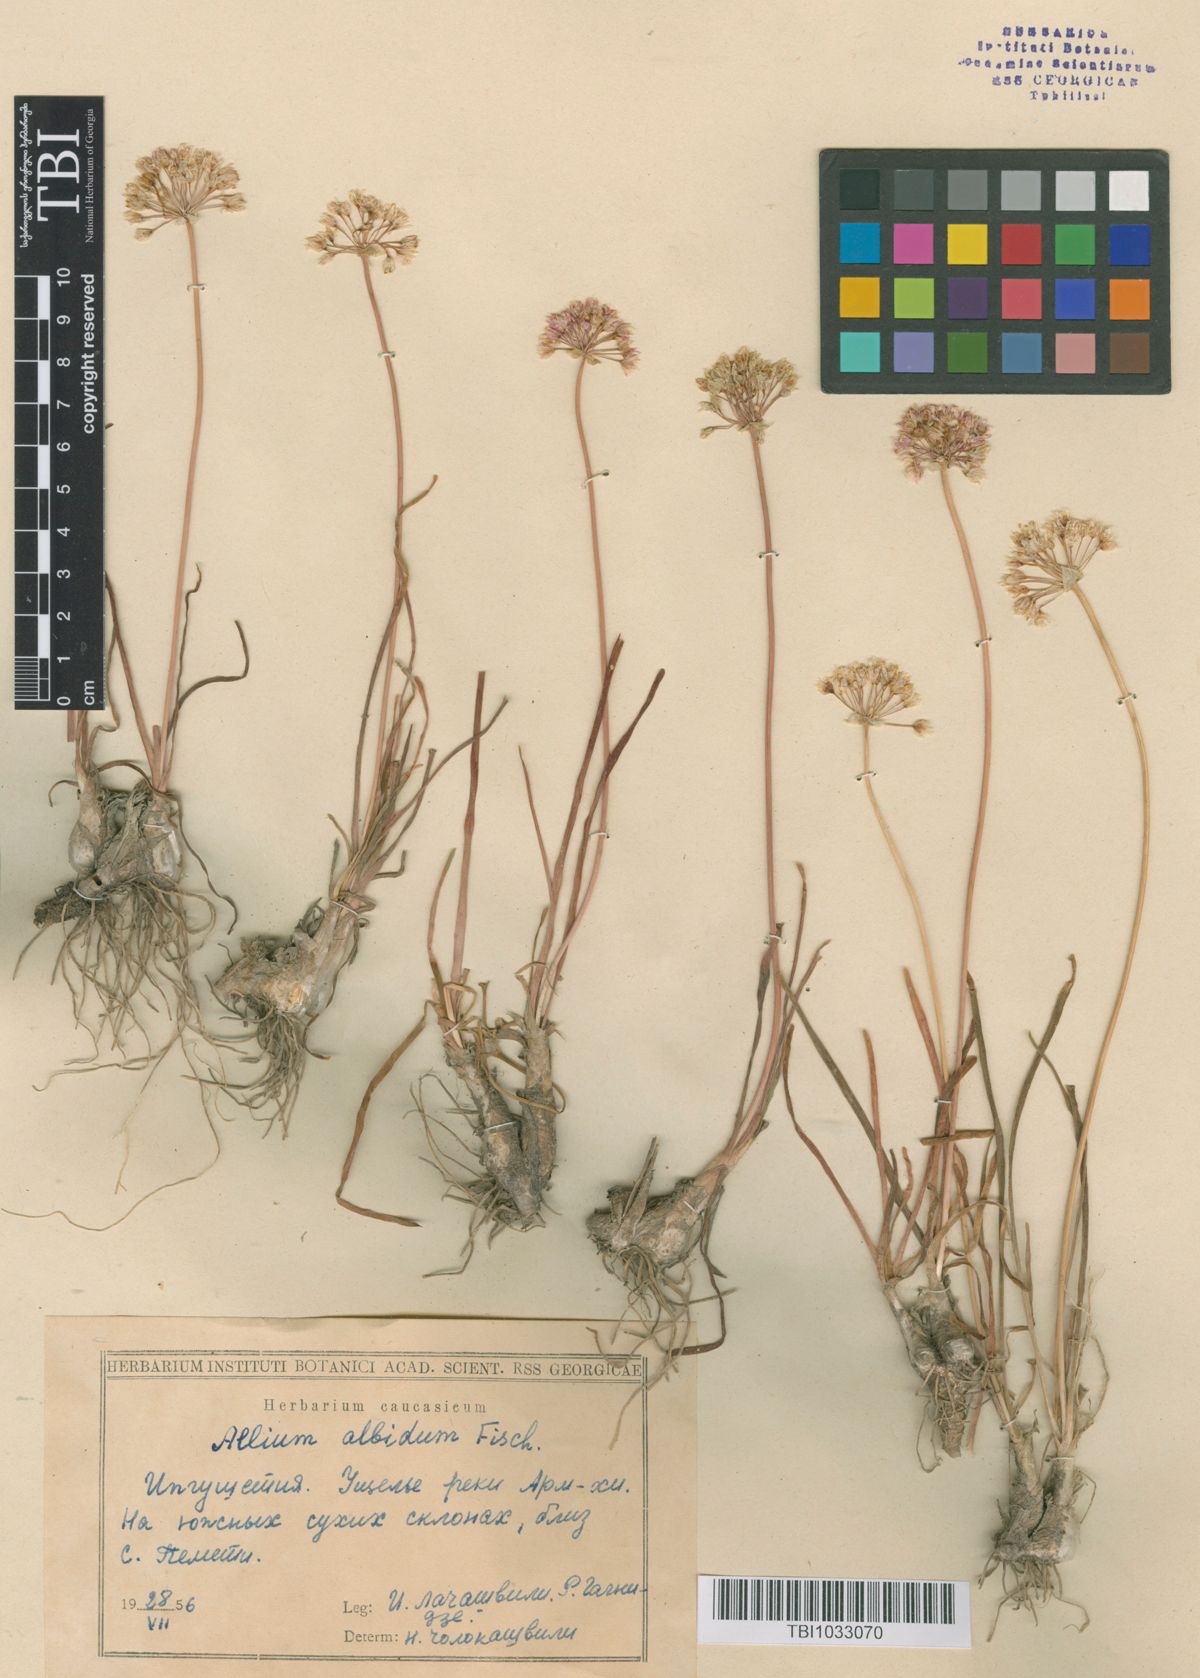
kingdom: Plantae
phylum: Tracheophyta
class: Liliopsida
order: Asparagales
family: Amaryllidaceae
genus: Allium
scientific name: Allium denudatum
